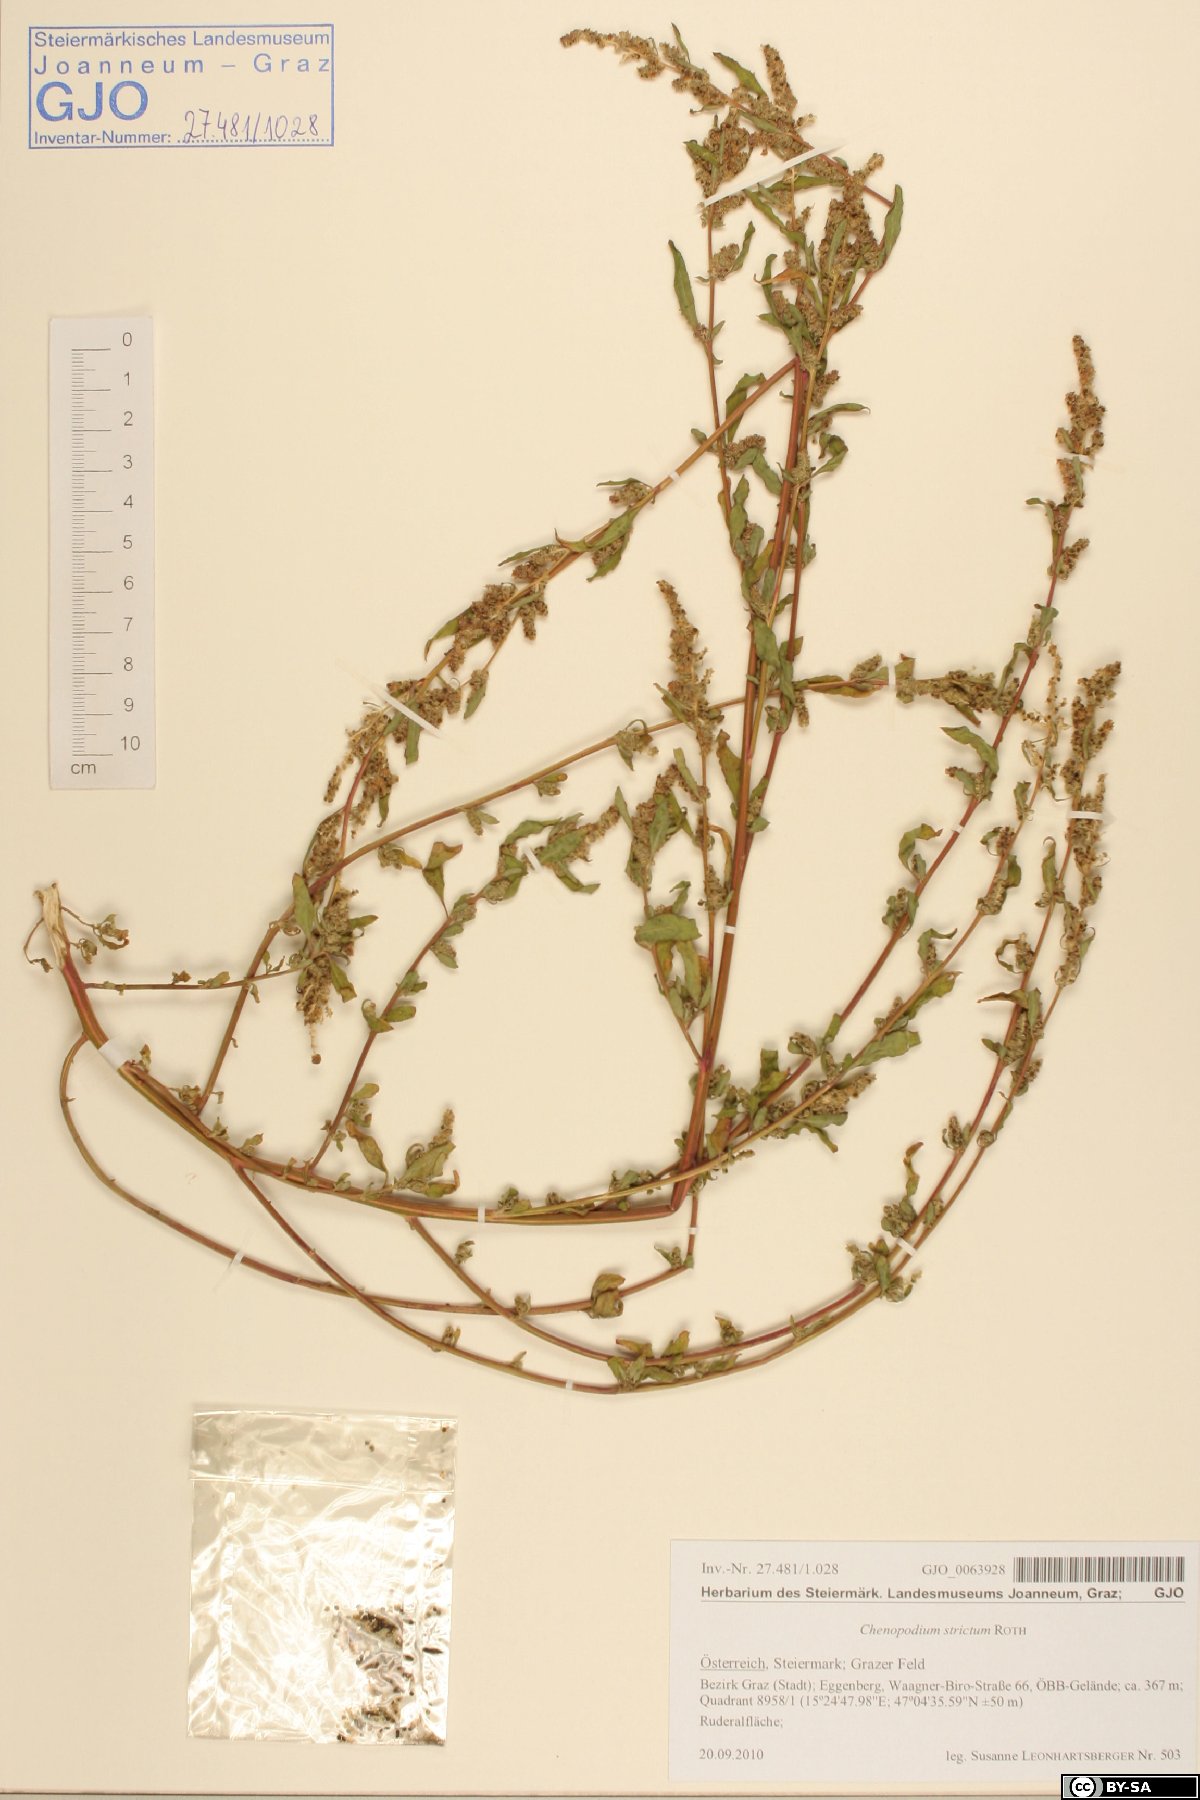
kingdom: Plantae
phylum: Tracheophyta
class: Magnoliopsida
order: Caryophyllales
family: Amaranthaceae
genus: Chenopodium
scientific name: Chenopodium album
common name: Fat-hen
